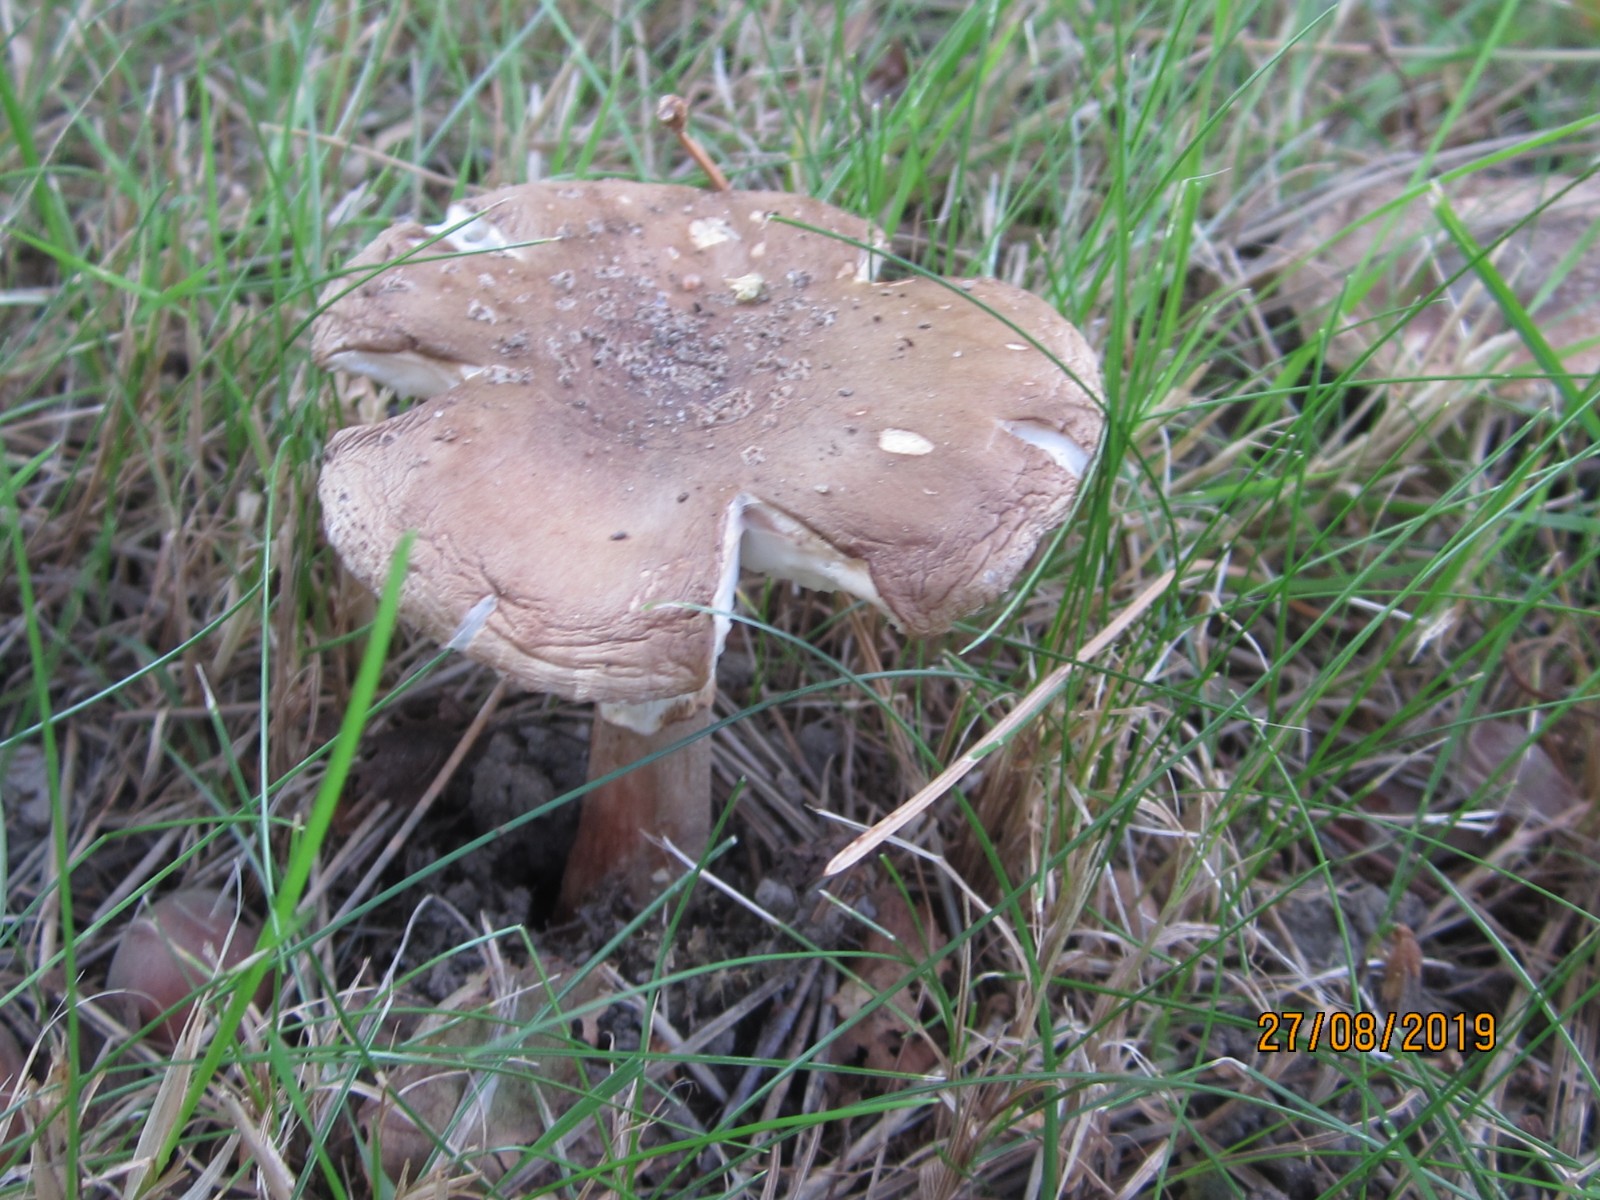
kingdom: Fungi
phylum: Basidiomycota
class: Agaricomycetes
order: Agaricales
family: Amanitaceae
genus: Amanita
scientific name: Amanita rubescens
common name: rødmende fluesvamp
